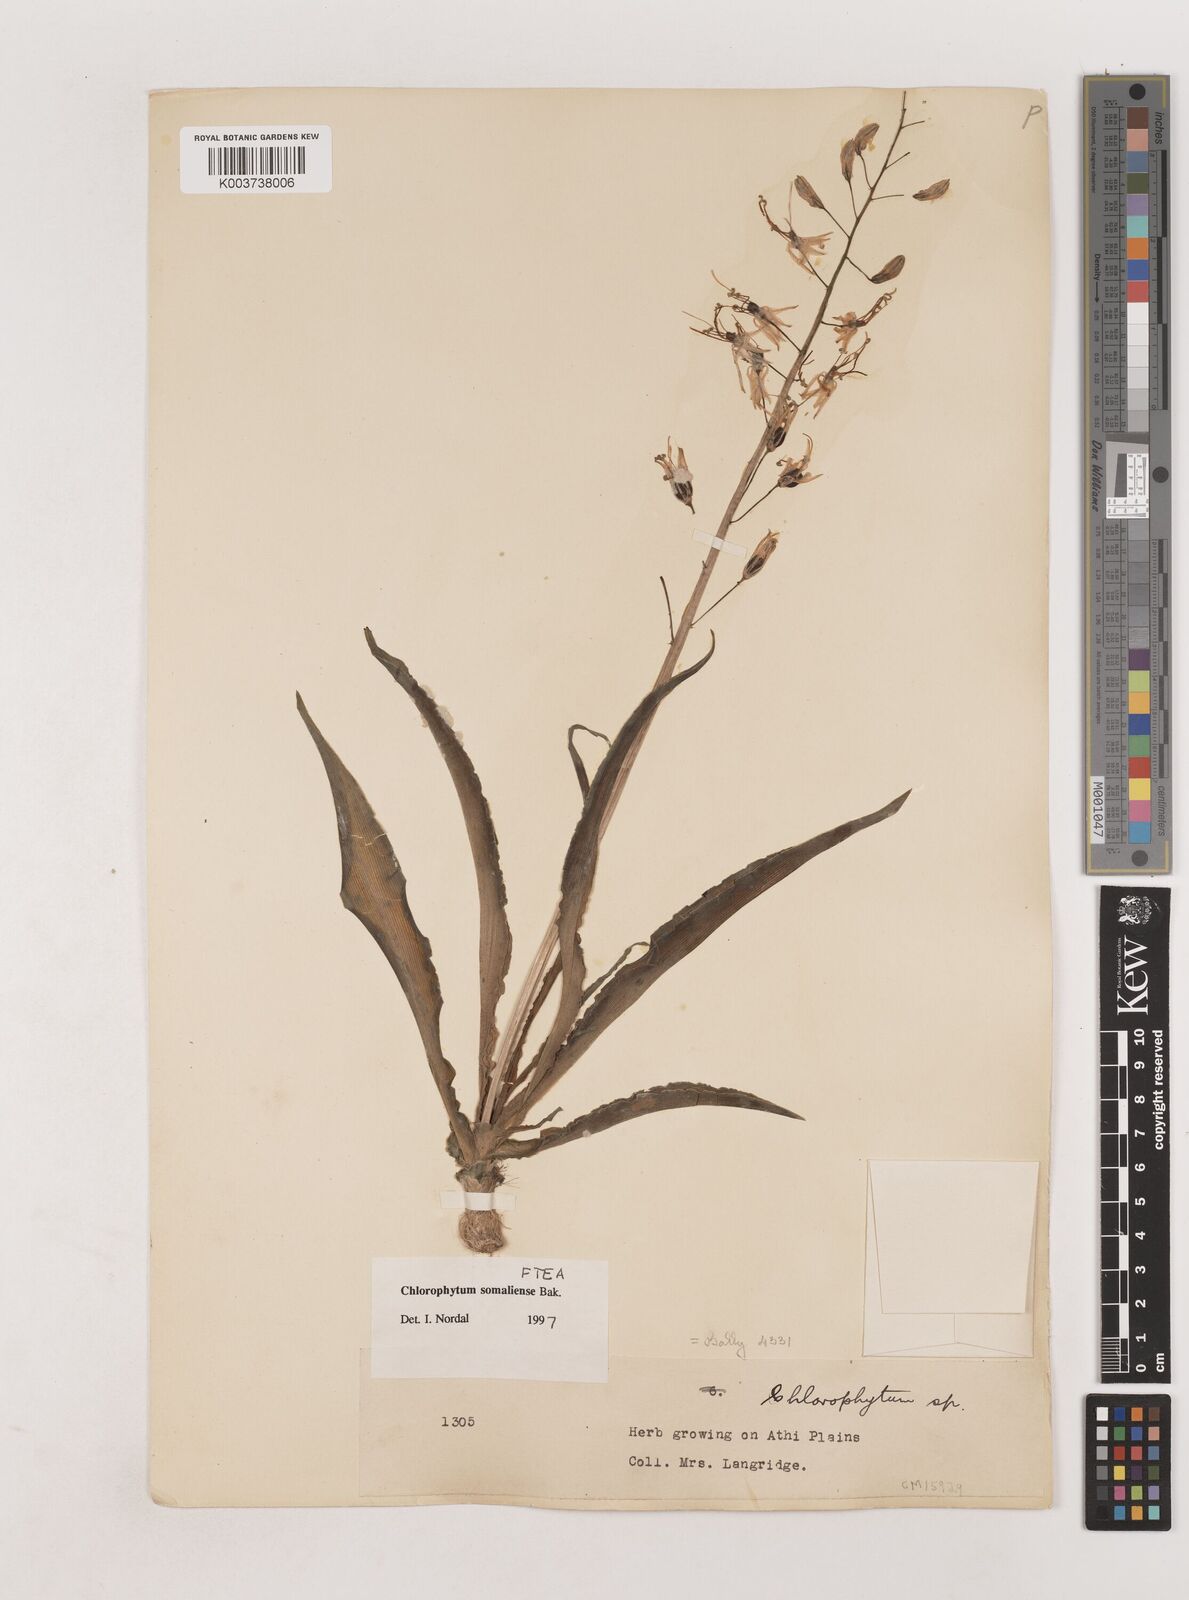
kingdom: Plantae
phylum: Tracheophyta
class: Liliopsida
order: Asparagales
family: Asparagaceae
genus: Chlorophytum
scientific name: Chlorophytum somaliense
